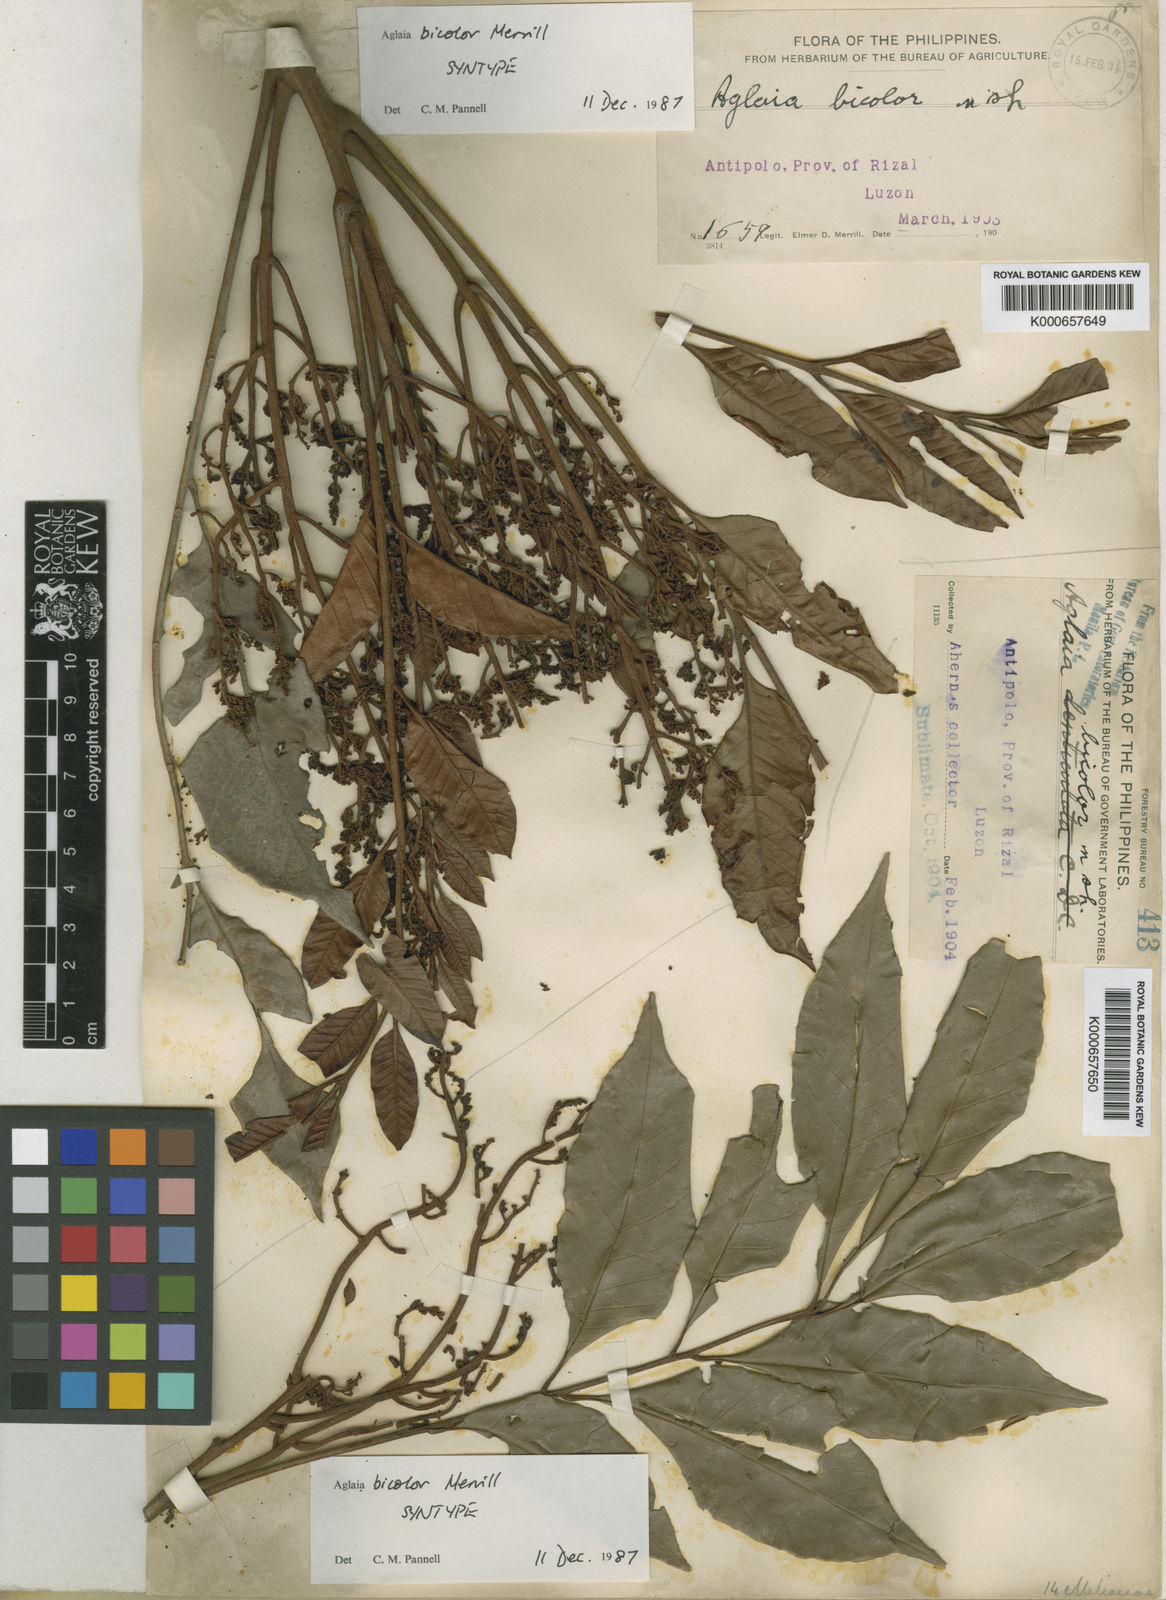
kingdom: Plantae
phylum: Tracheophyta
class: Magnoliopsida
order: Sapindales
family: Meliaceae
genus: Aglaia
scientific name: Aglaia smithii
